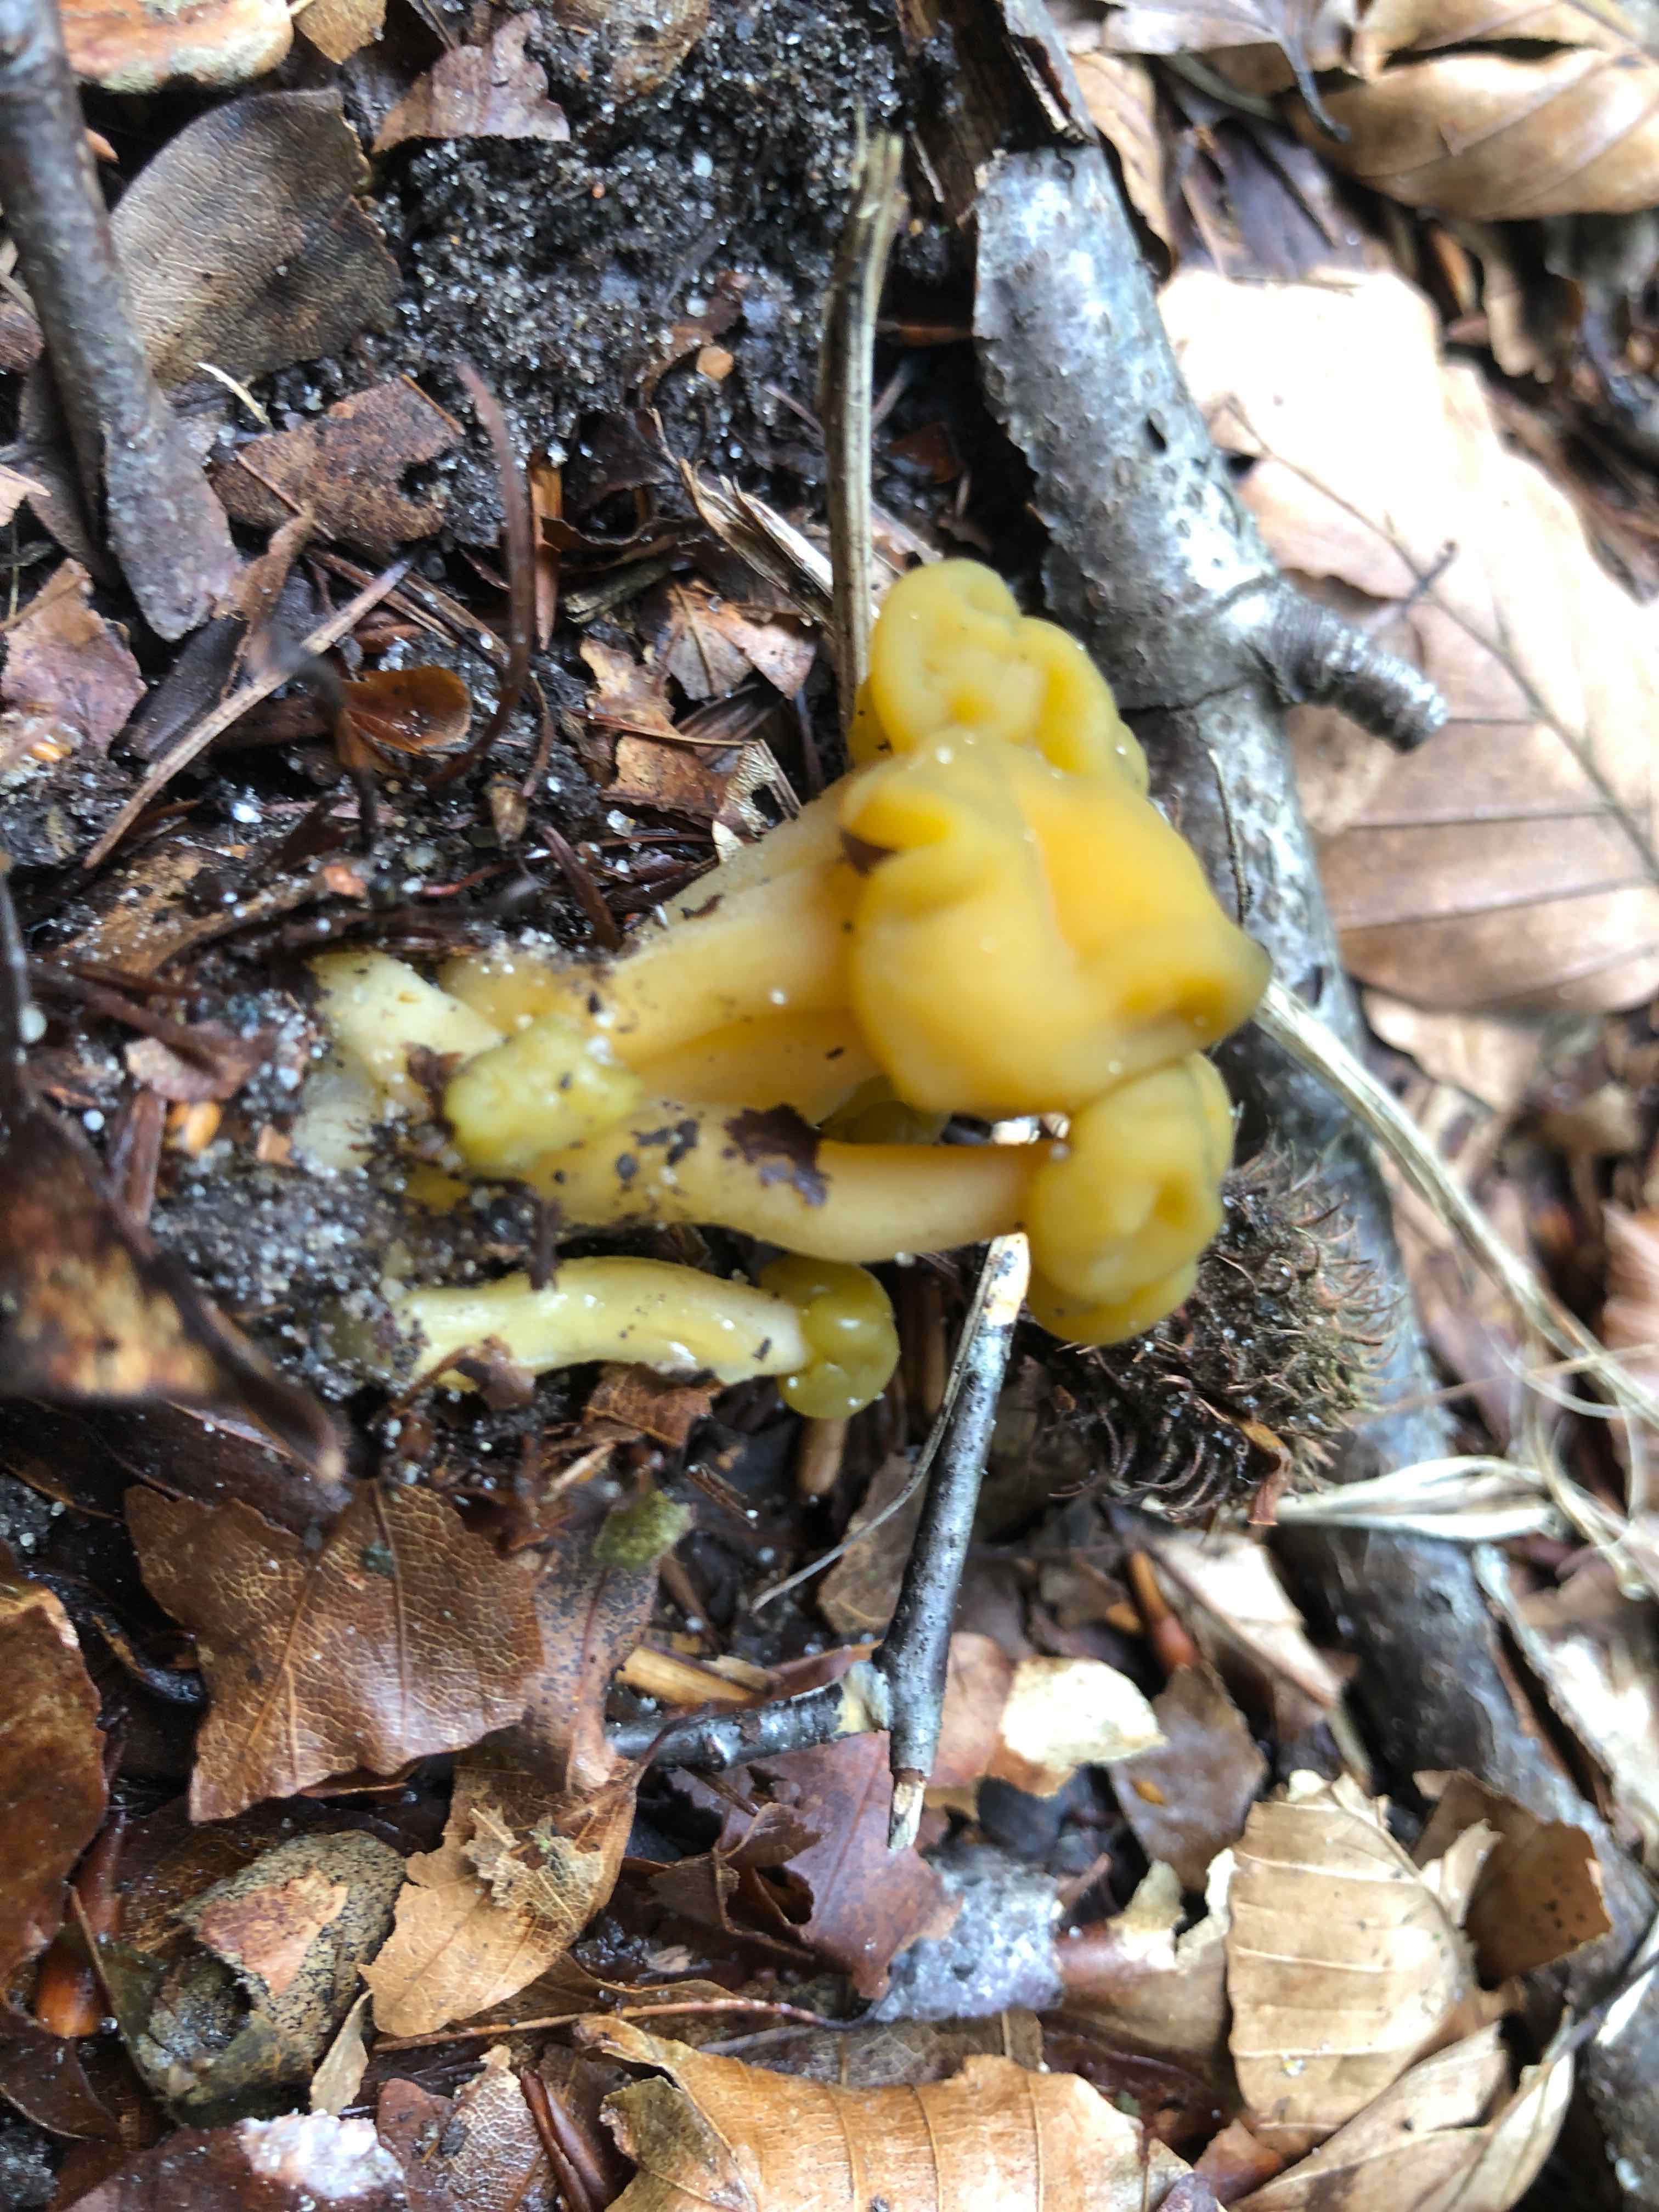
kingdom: Fungi
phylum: Ascomycota
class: Leotiomycetes
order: Leotiales
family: Leotiaceae
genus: Leotia
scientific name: Leotia lubrica
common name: ravsvamp
